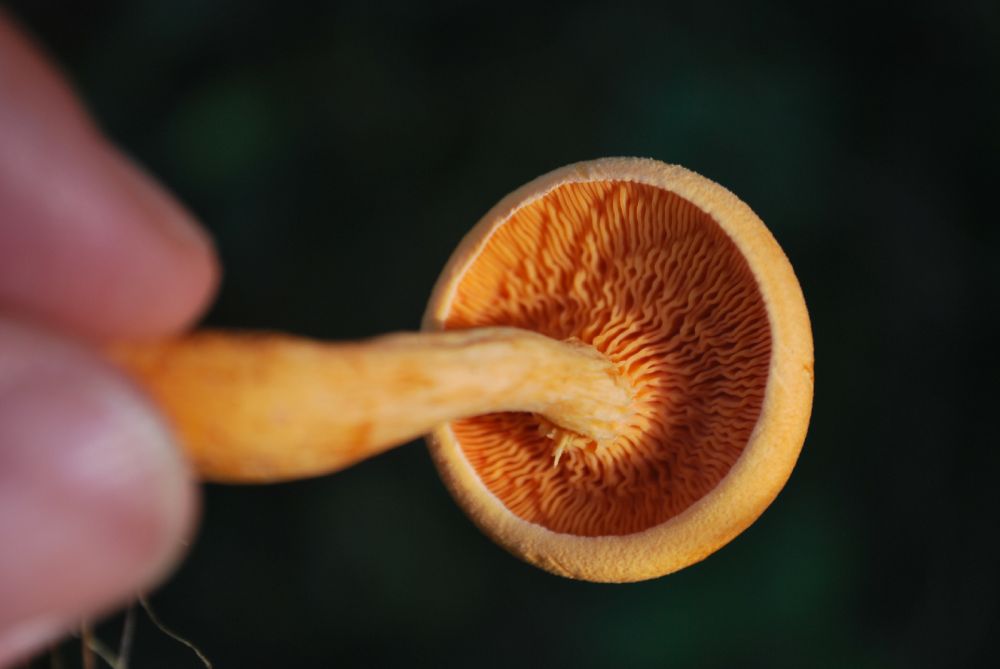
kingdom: Fungi
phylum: Basidiomycota
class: Agaricomycetes
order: Boletales
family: Hygrophoropsidaceae
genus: Hygrophoropsis
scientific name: Hygrophoropsis aurantiaca
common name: almindelig orangekantarel
